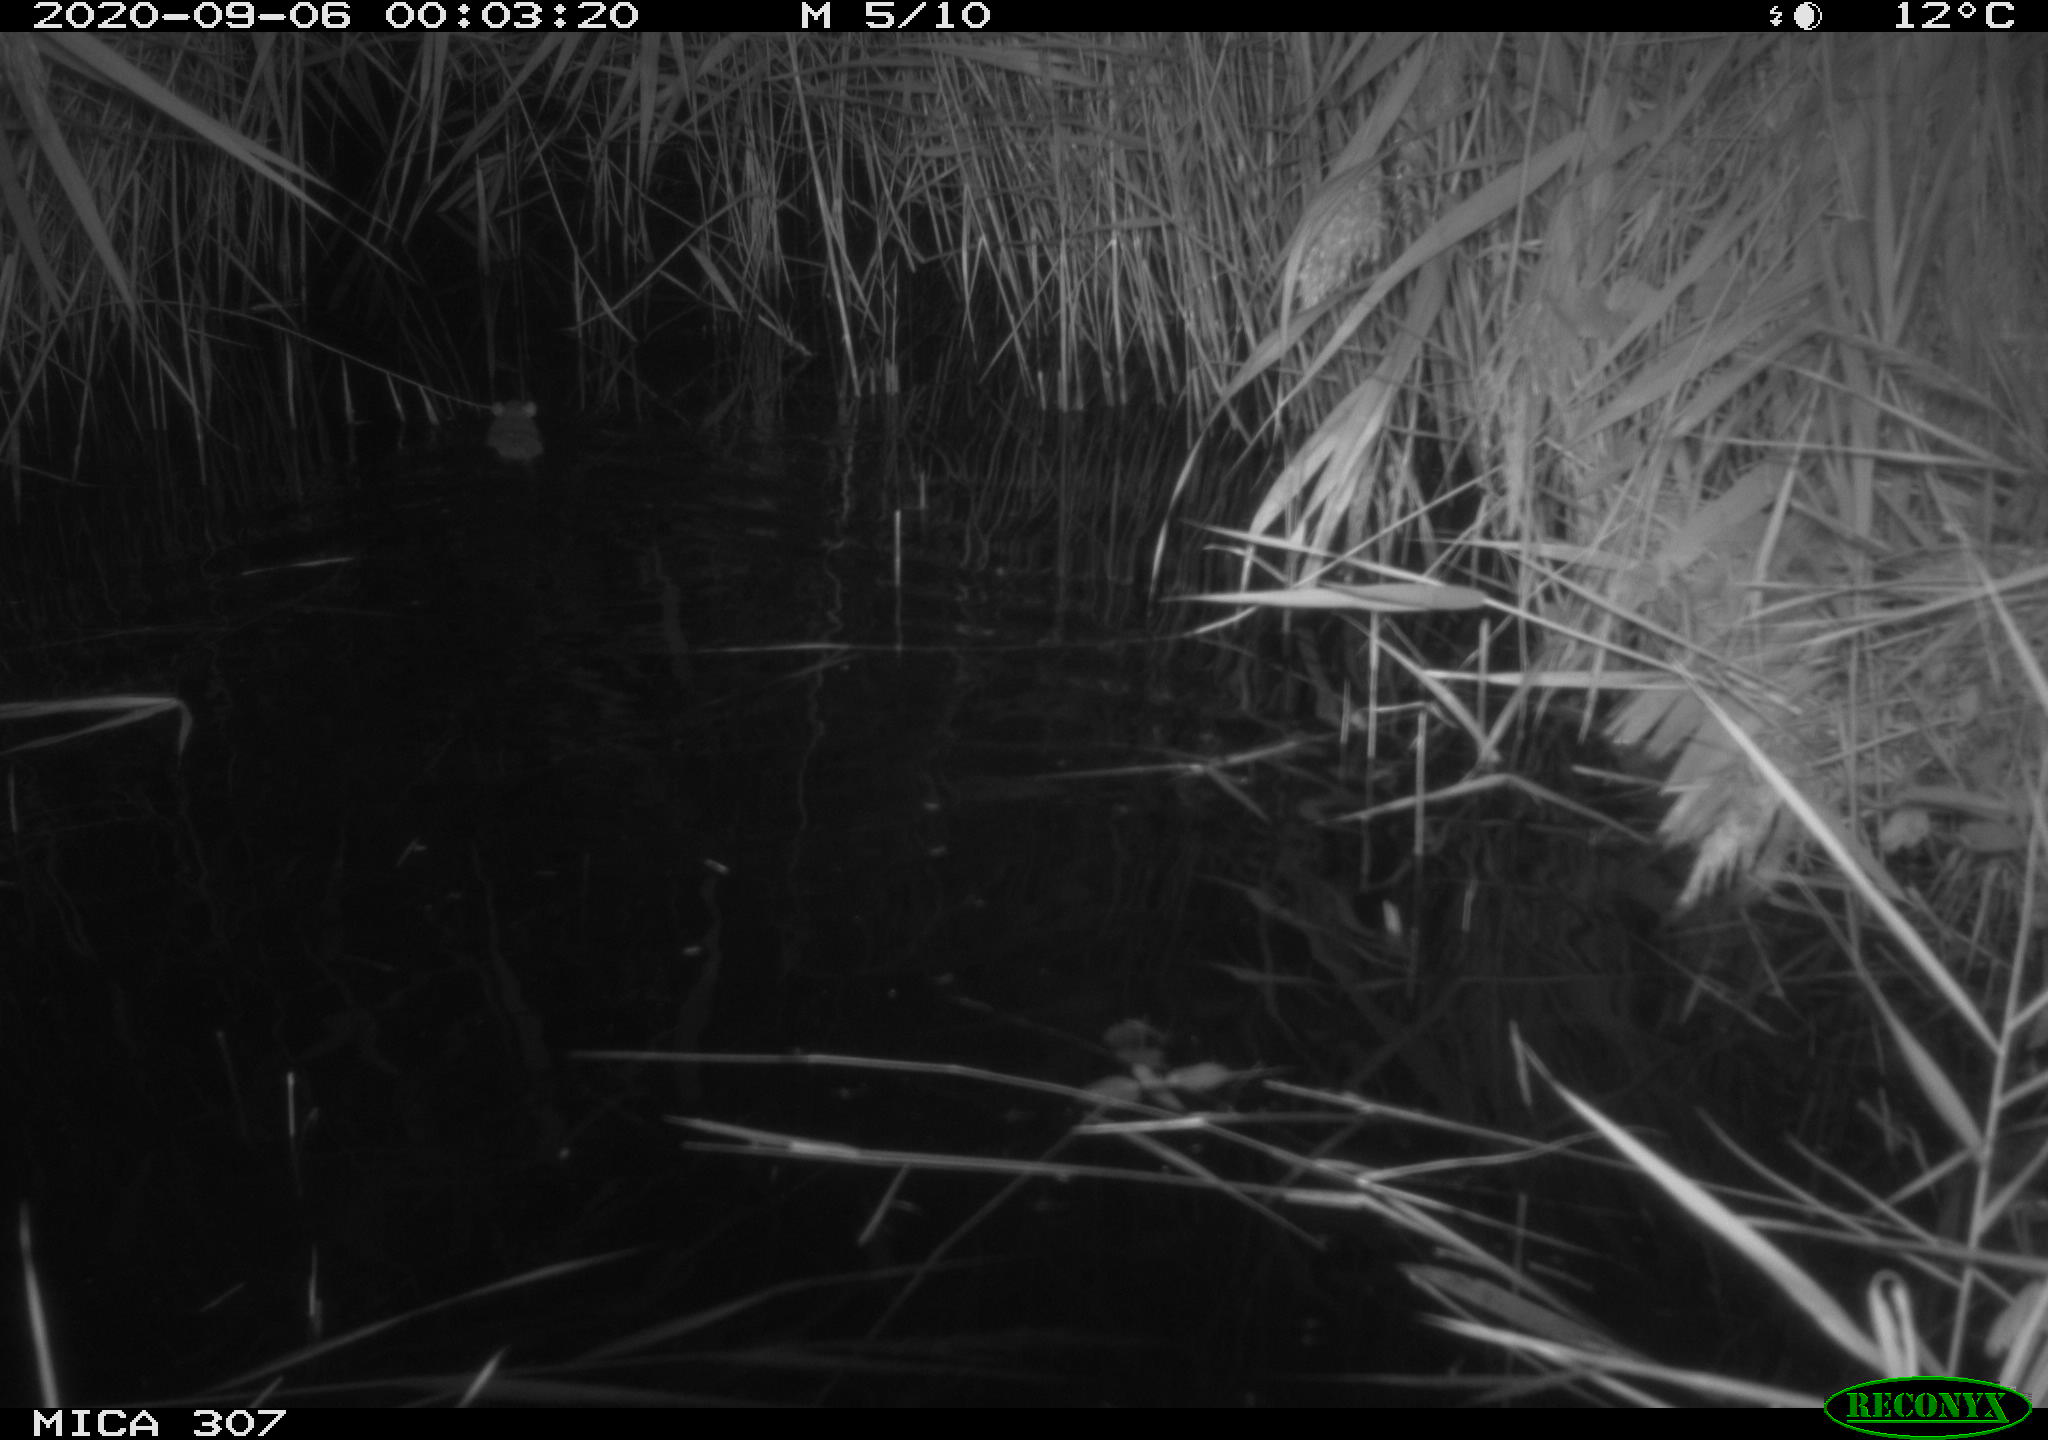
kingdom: Animalia
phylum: Chordata
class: Mammalia
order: Rodentia
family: Cricetidae
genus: Ondatra
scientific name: Ondatra zibethicus
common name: Muskrat
